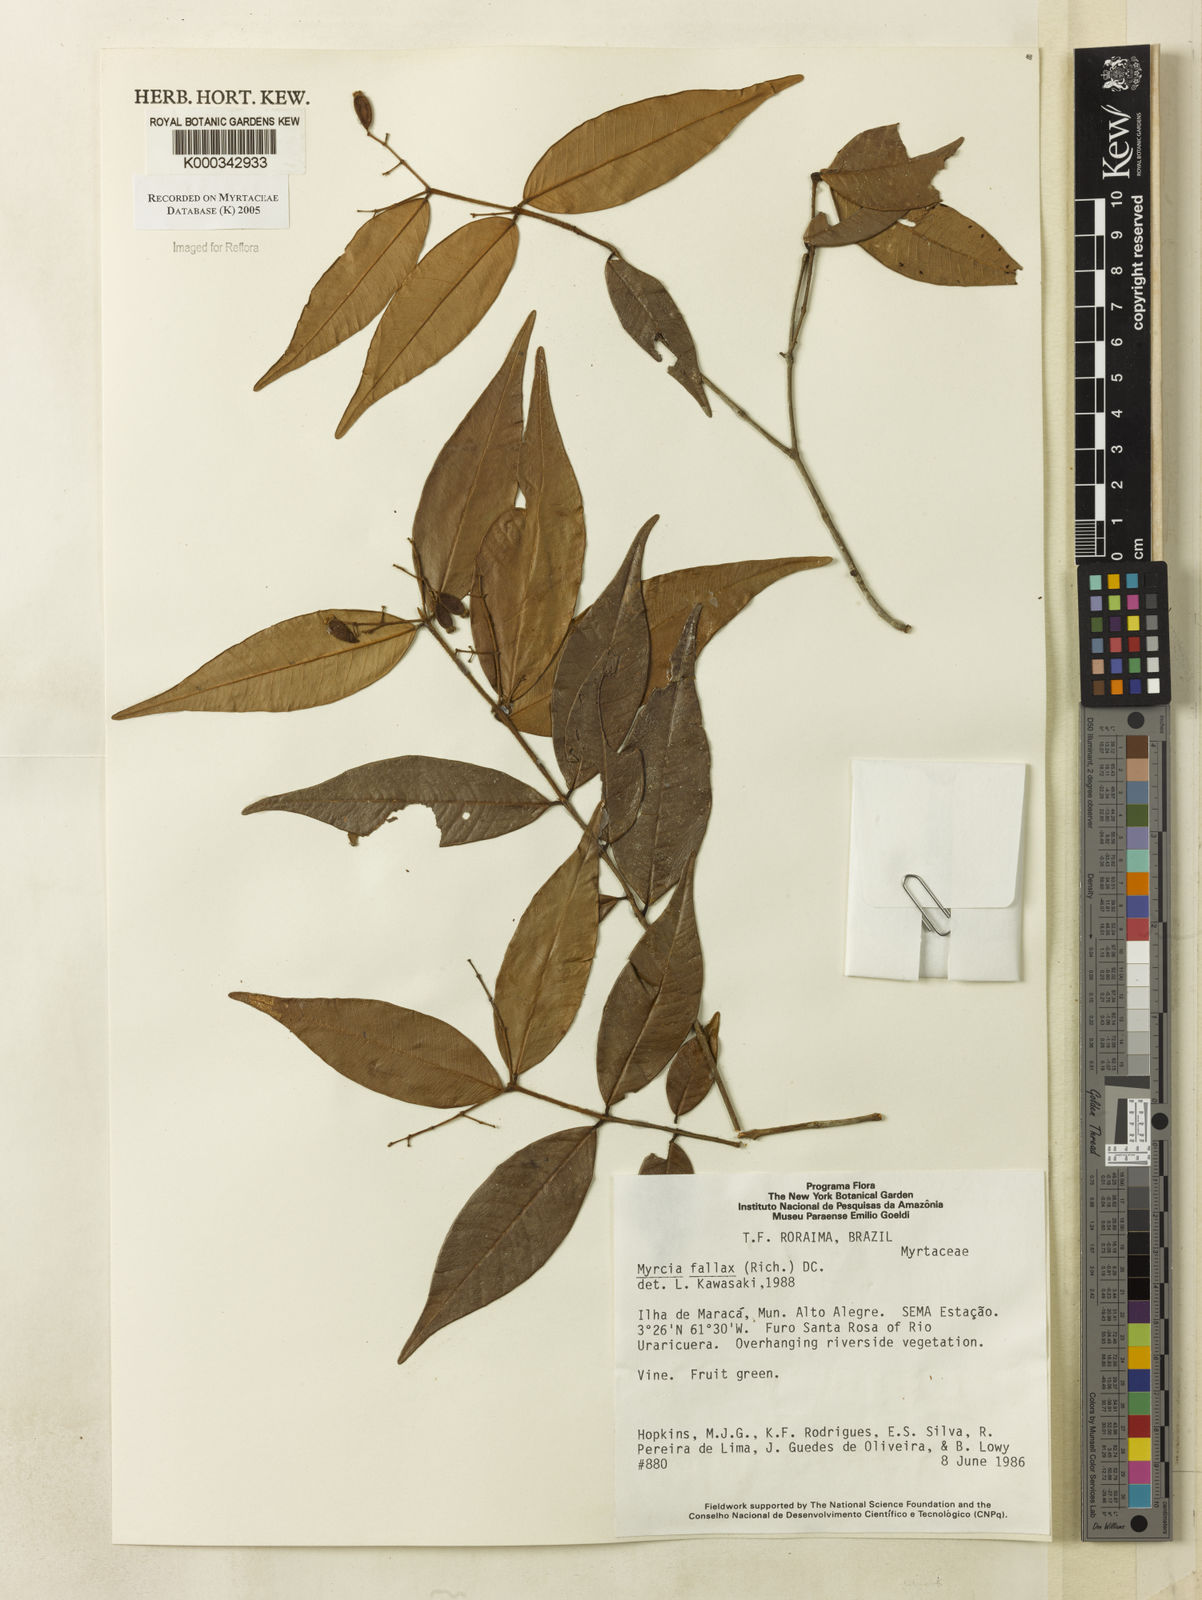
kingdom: Plantae
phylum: Tracheophyta
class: Magnoliopsida
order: Myrtales
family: Myrtaceae
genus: Myrcia
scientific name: Myrcia splendens
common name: Surinam cherry
